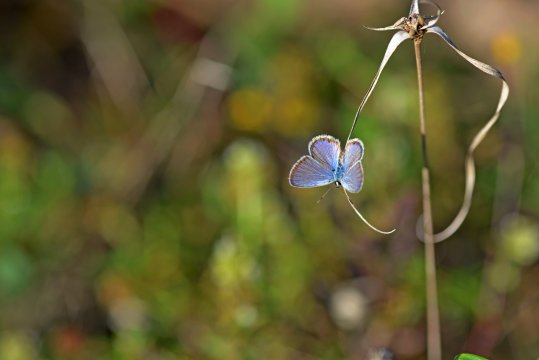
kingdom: Animalia
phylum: Arthropoda
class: Insecta
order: Lepidoptera
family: Lycaenidae
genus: Hemiargus
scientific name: Hemiargus ceraunus
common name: Ceraunus Blue
